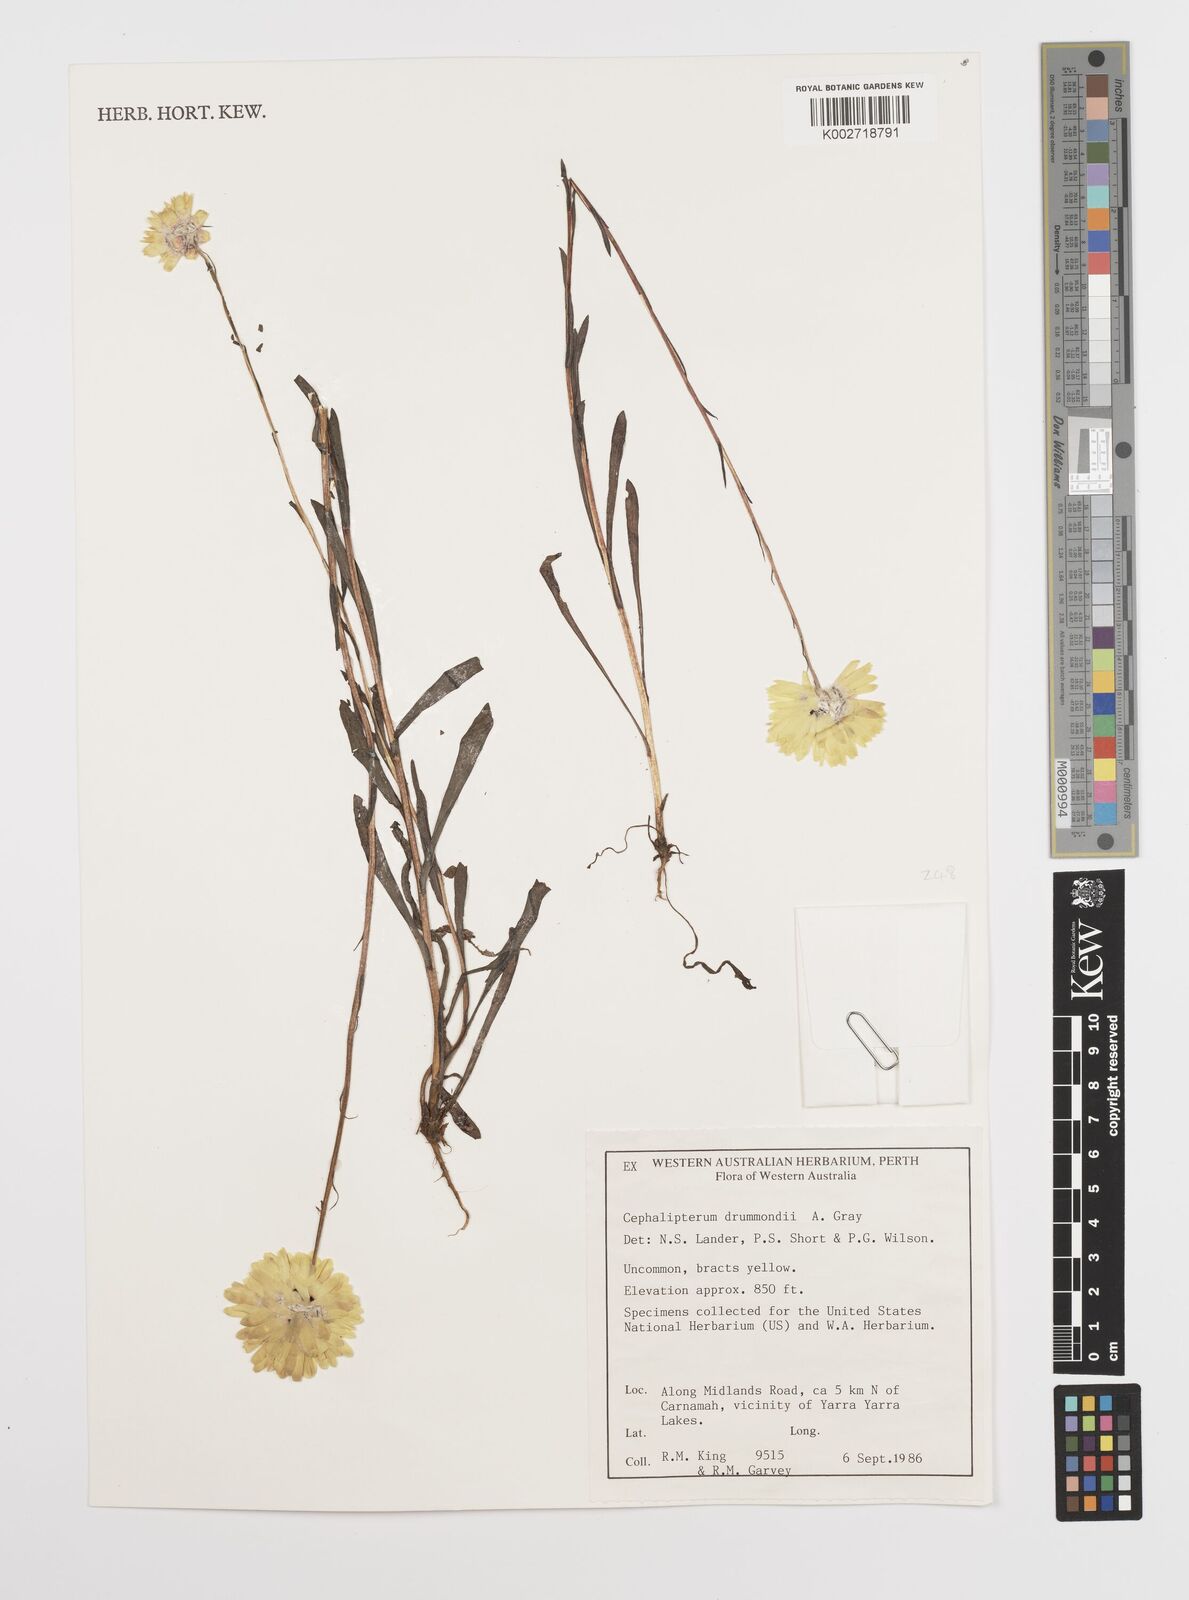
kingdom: Plantae
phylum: Tracheophyta
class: Magnoliopsida
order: Asterales
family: Asteraceae
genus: Cephalipterum
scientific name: Cephalipterum drummondii
